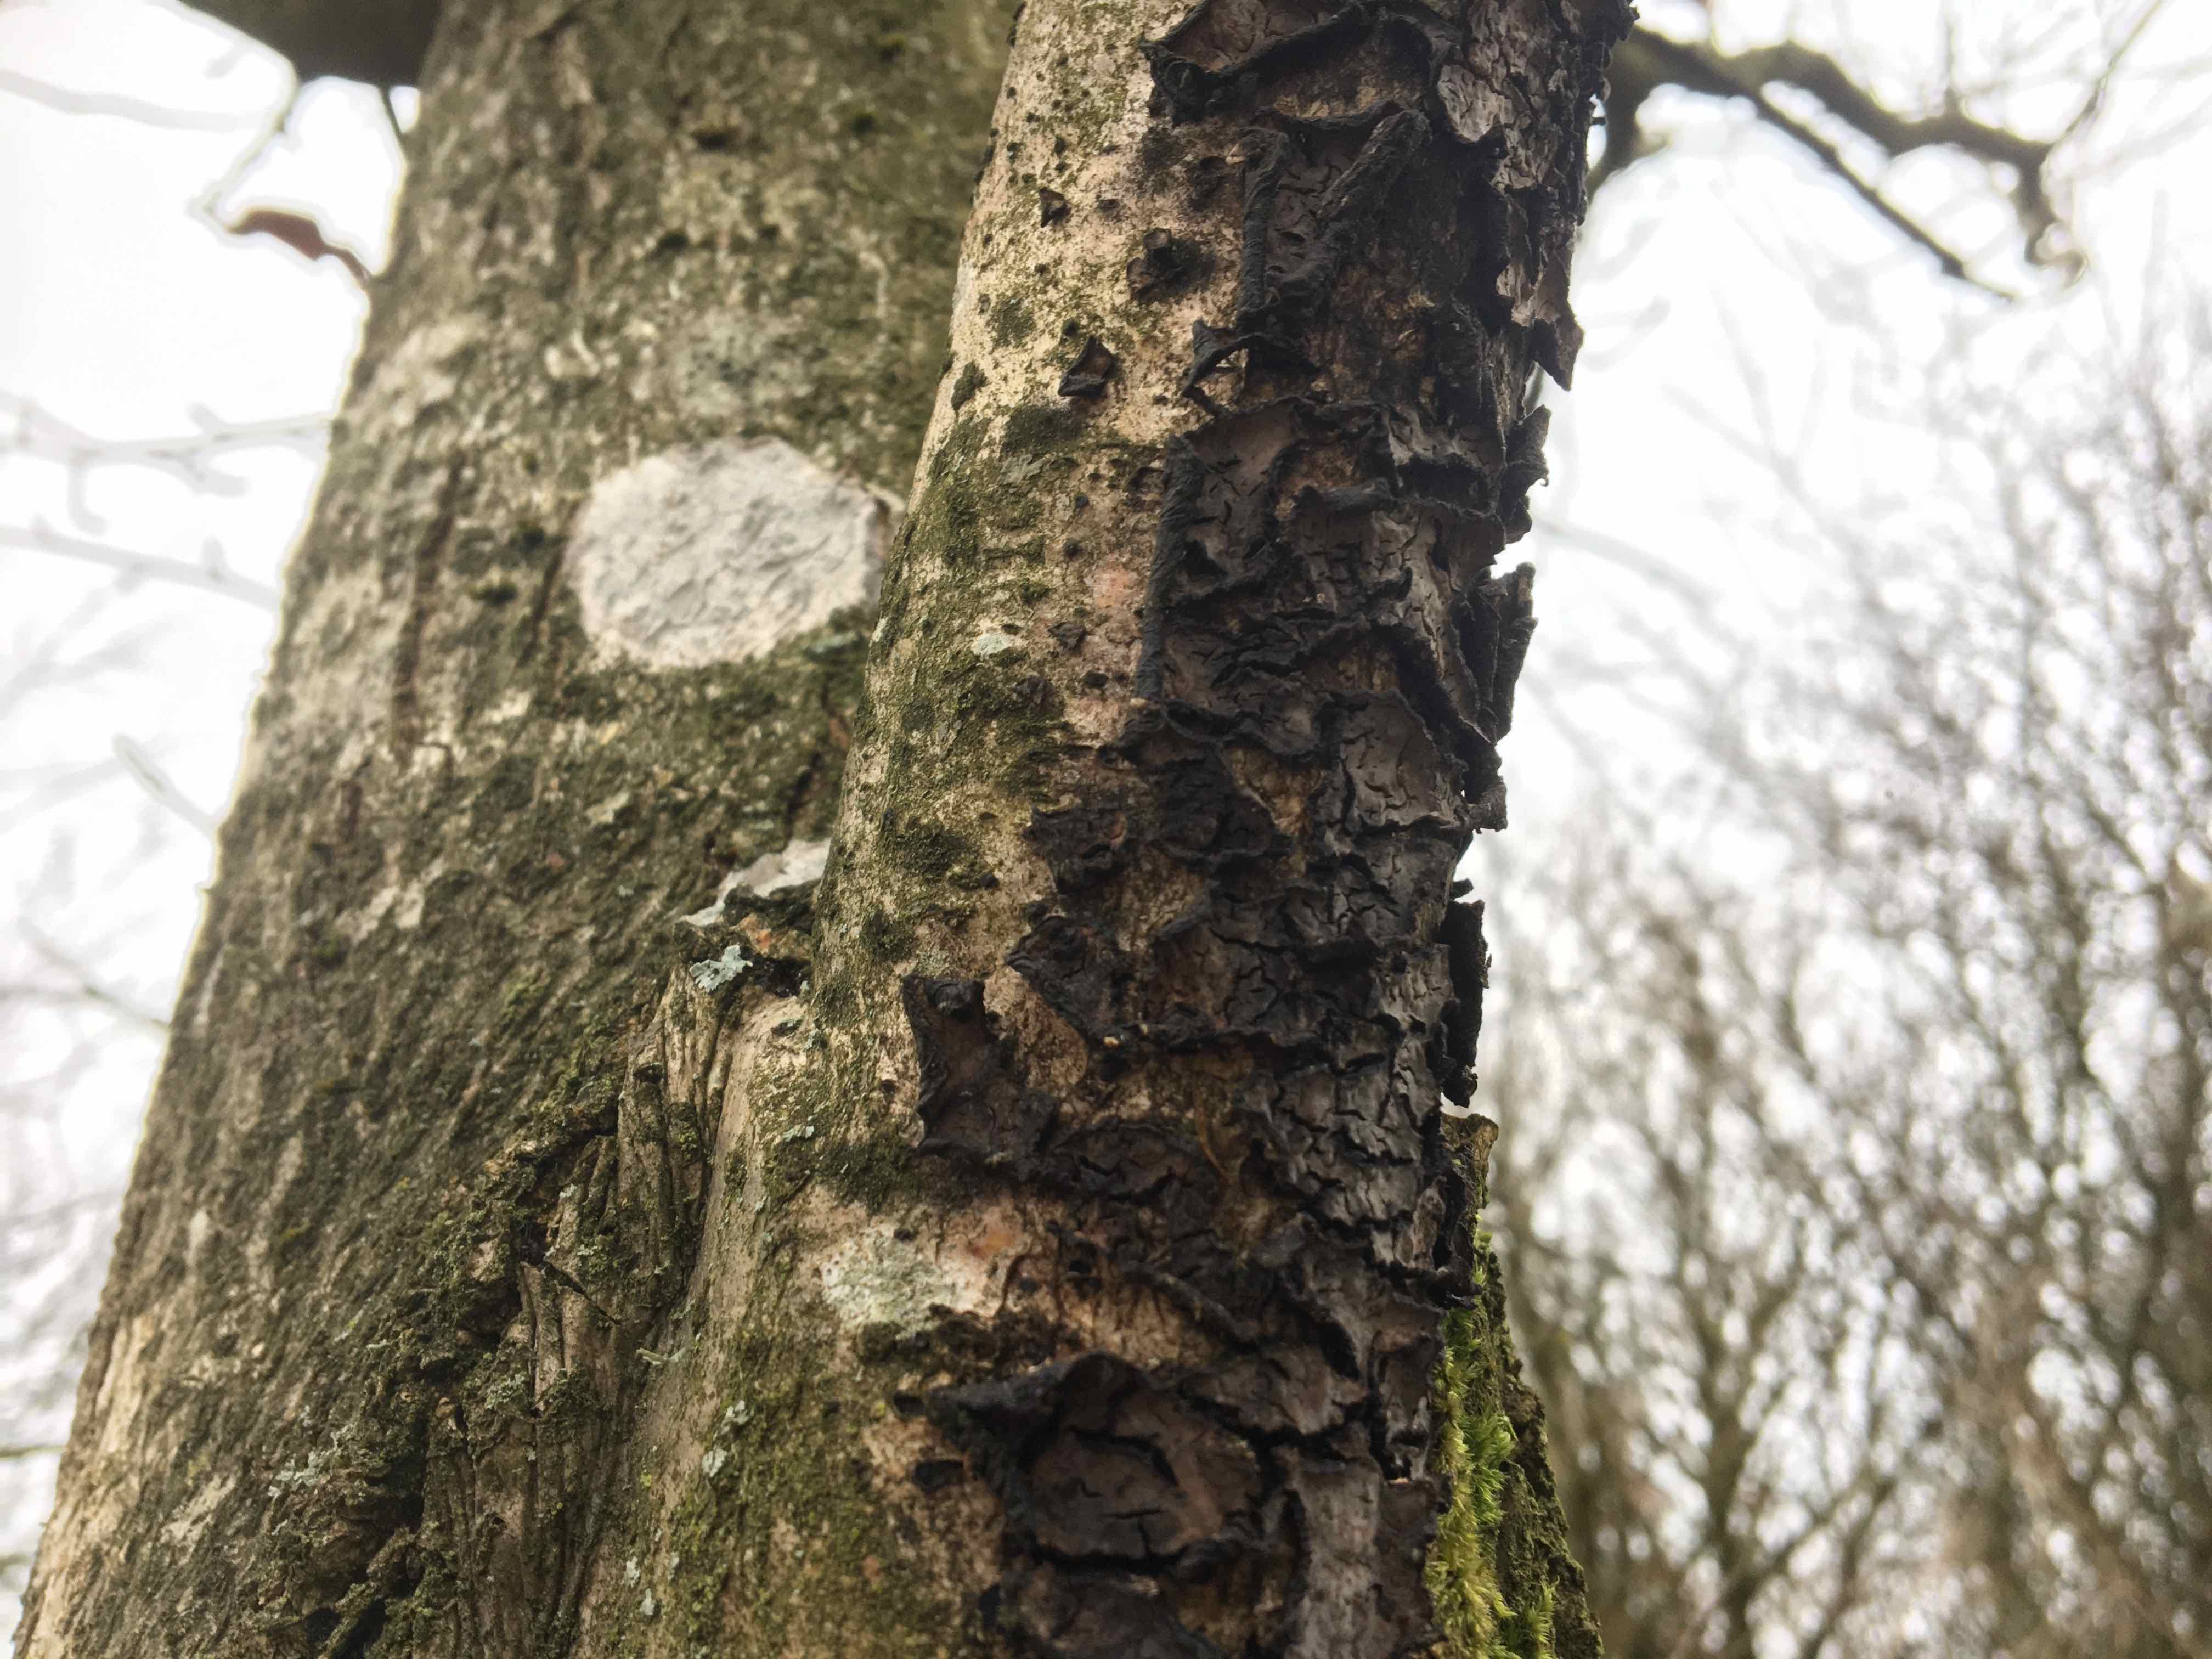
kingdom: Fungi
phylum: Basidiomycota
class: Agaricomycetes
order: Russulales
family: Peniophoraceae
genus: Peniophora
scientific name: Peniophora quercina
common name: ege-voksskind
